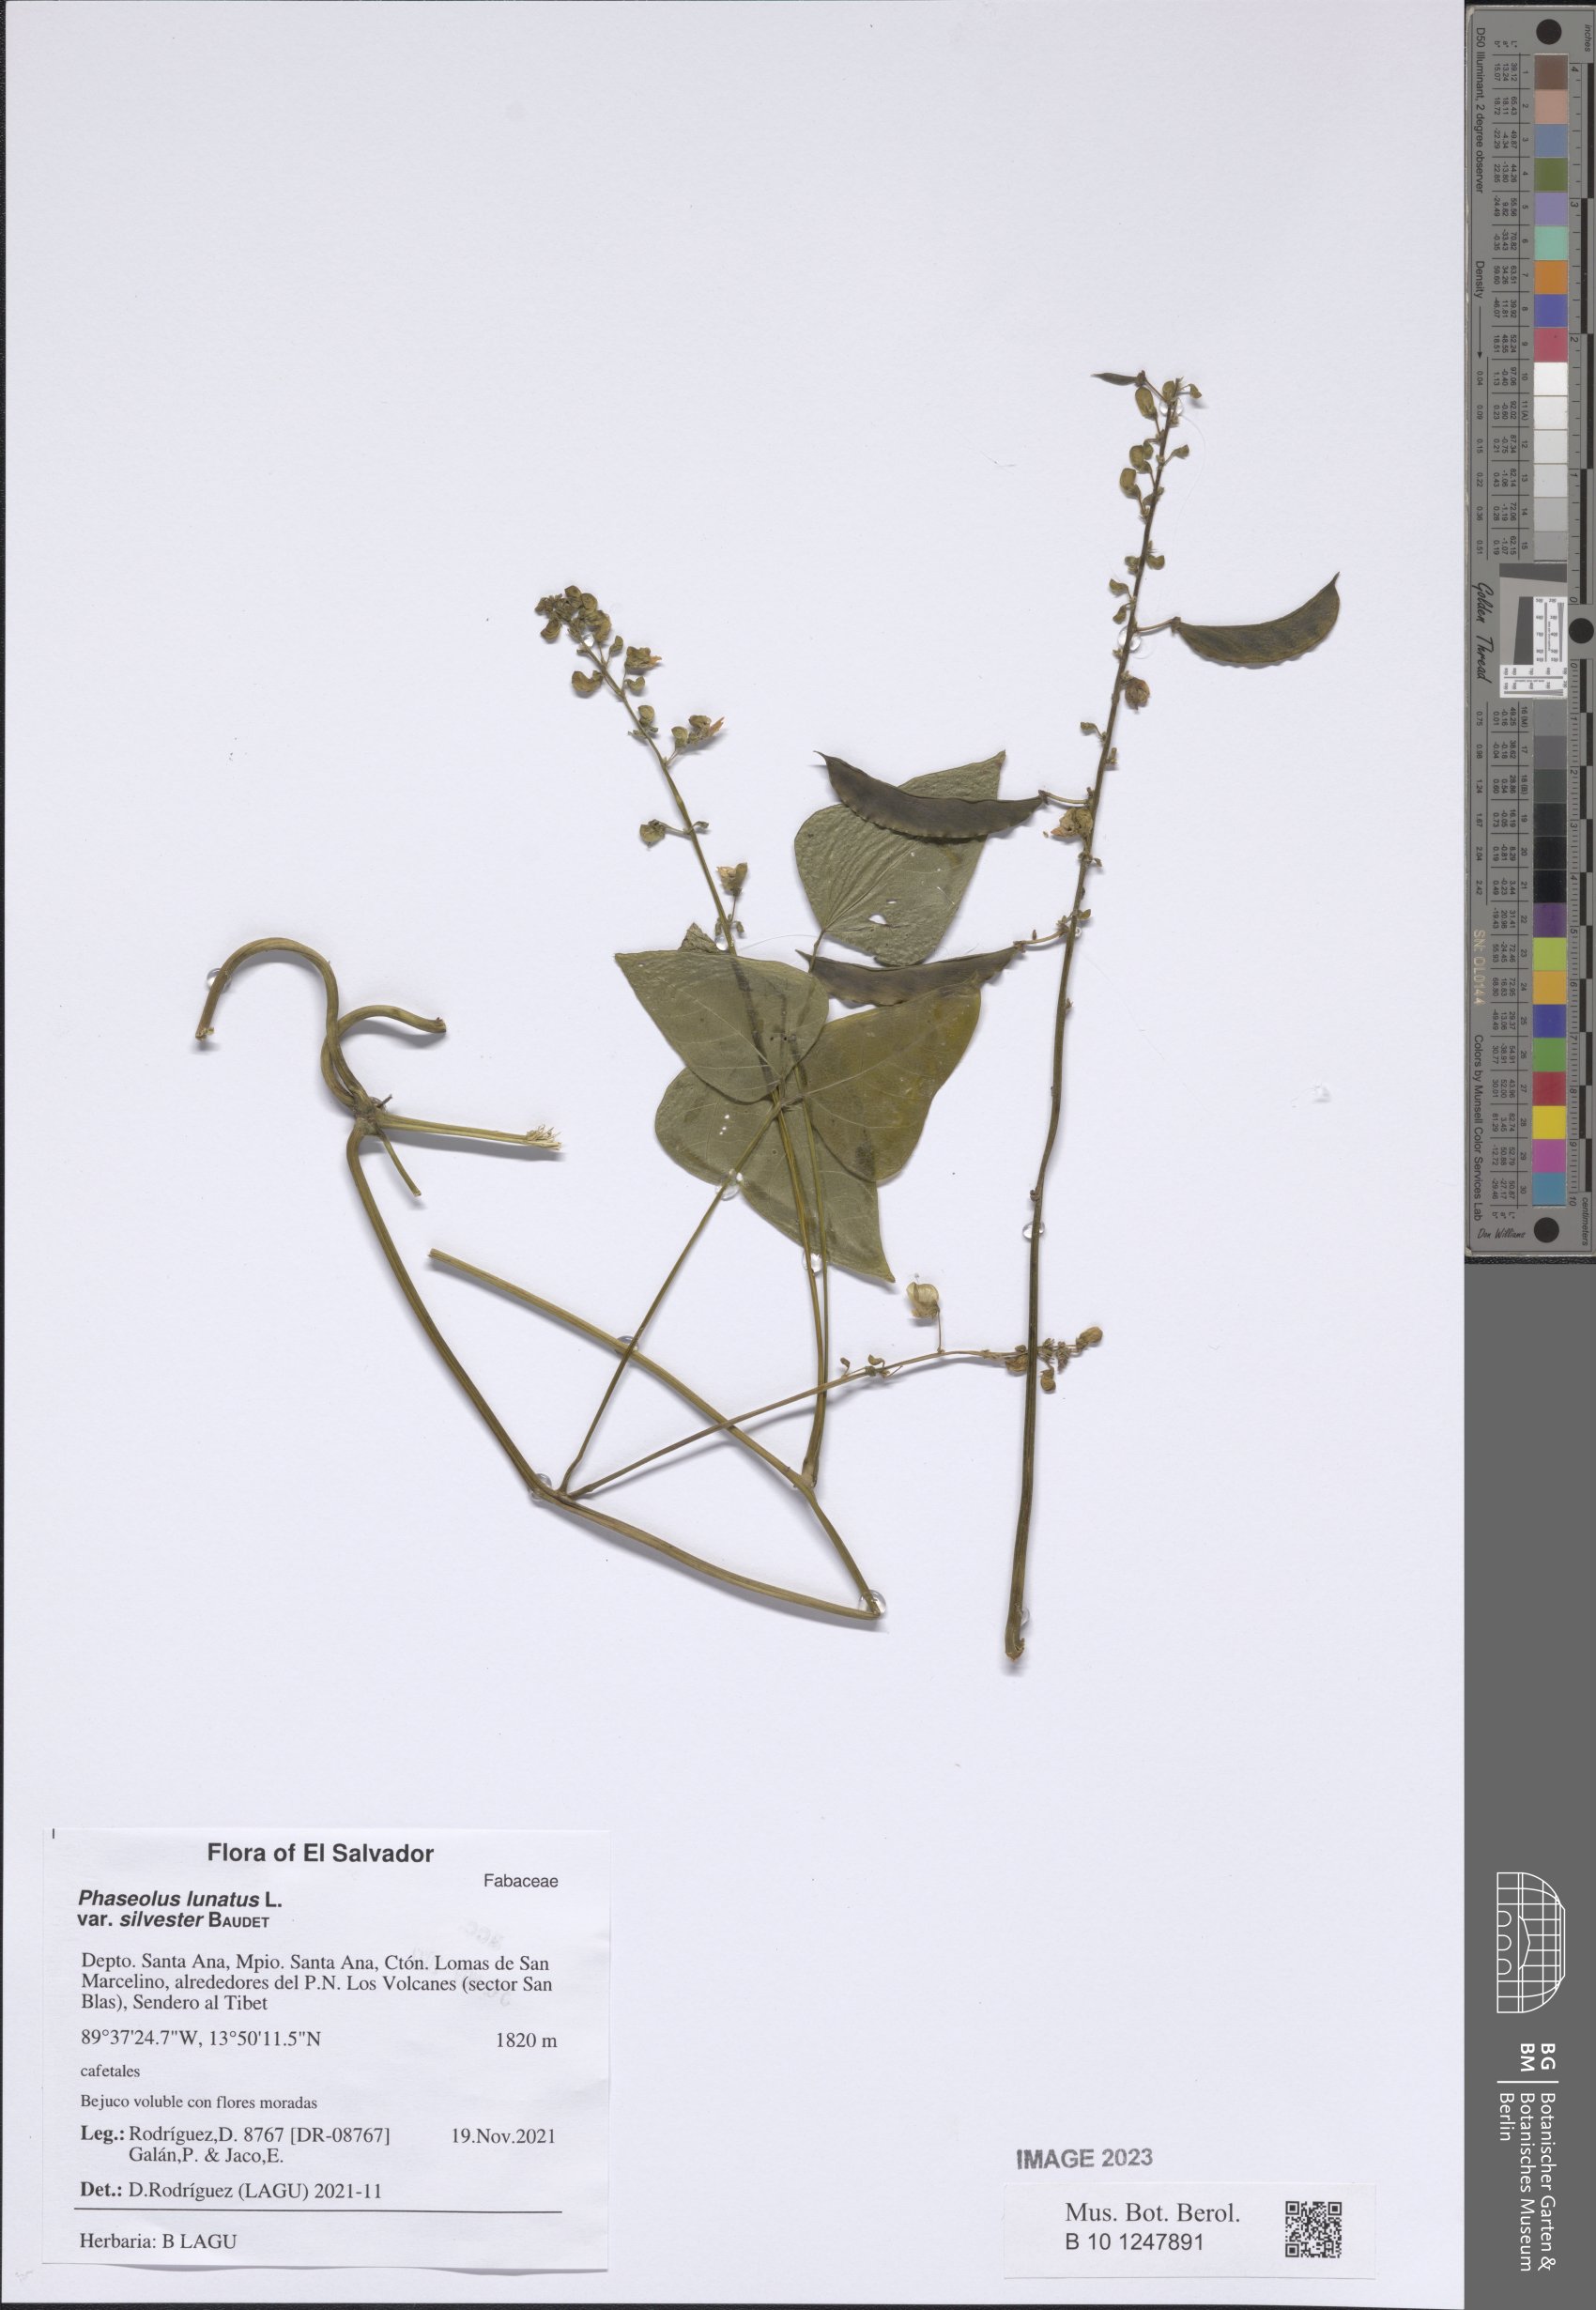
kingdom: Plantae
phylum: Tracheophyta
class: Magnoliopsida
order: Fabales
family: Fabaceae
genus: Phaseolus
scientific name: Phaseolus lunatus
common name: Sieva bean
